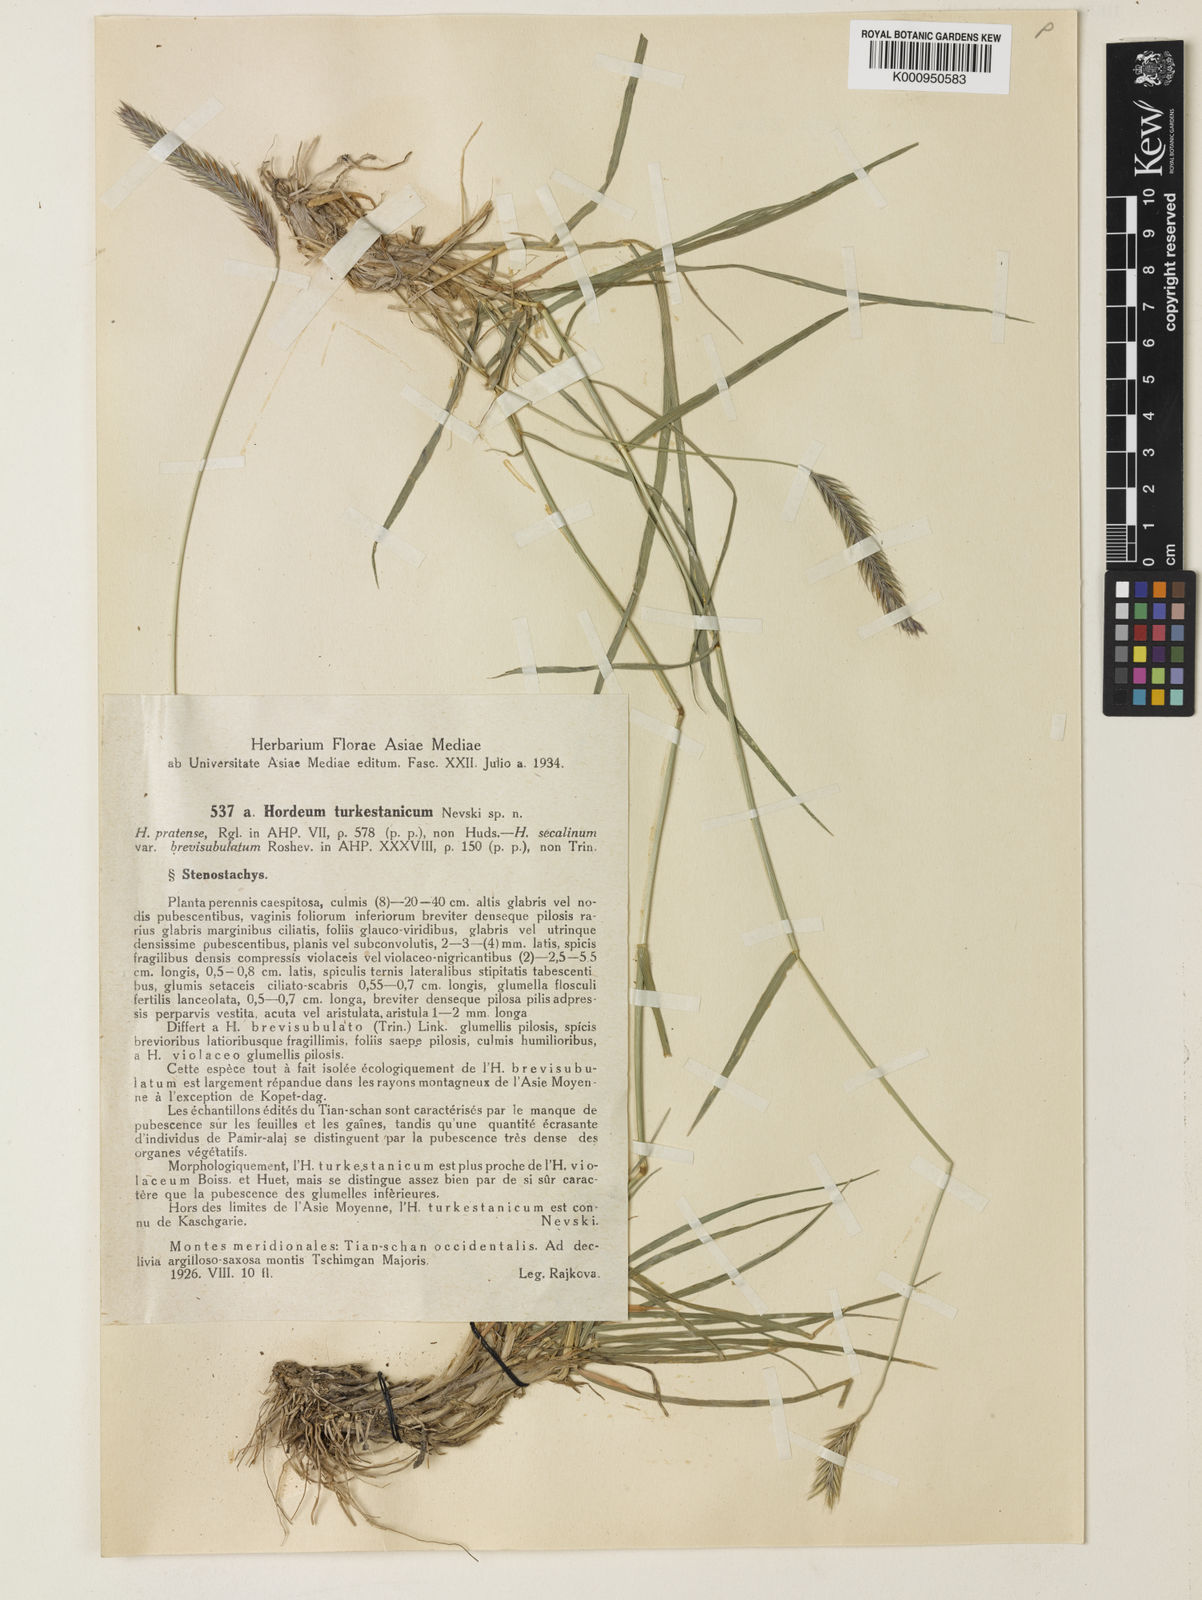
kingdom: Plantae
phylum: Tracheophyta
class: Liliopsida
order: Poales
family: Poaceae
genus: Hordeum
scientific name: Hordeum brevisubulatum
